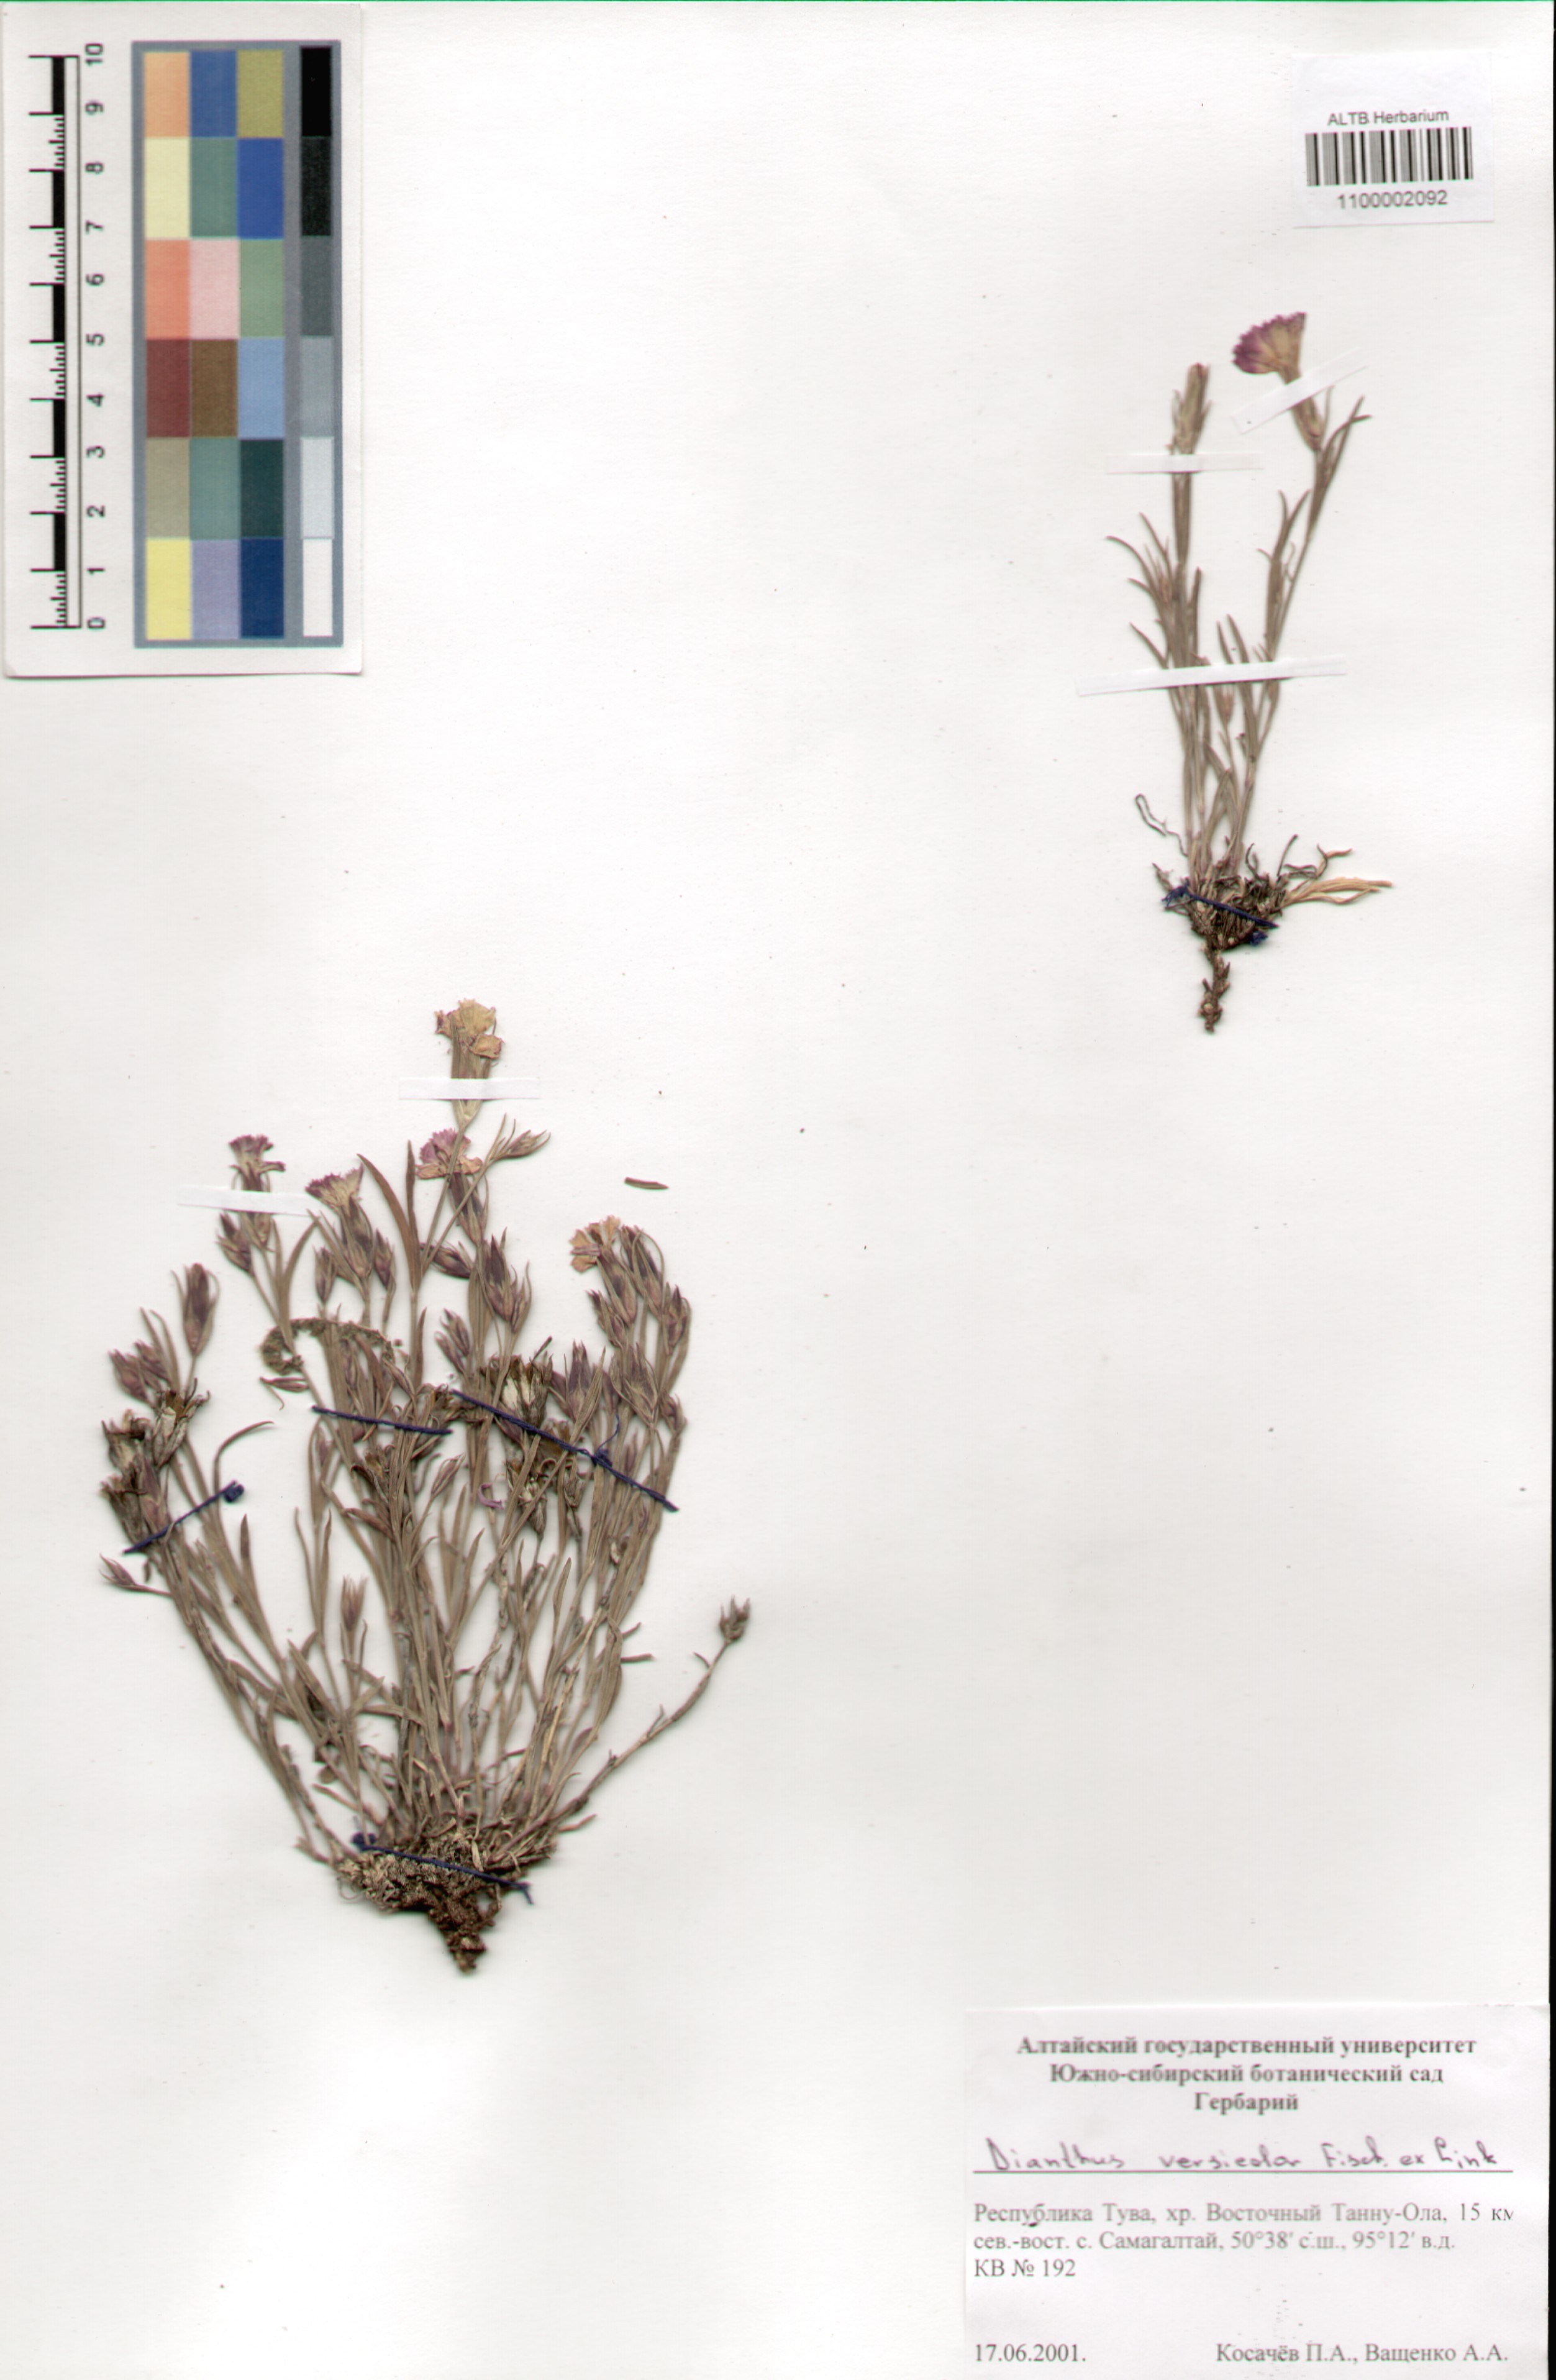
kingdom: Plantae
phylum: Tracheophyta
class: Magnoliopsida
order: Caryophyllales
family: Caryophyllaceae
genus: Dianthus
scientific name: Dianthus chinensis
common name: Rainbow pink
